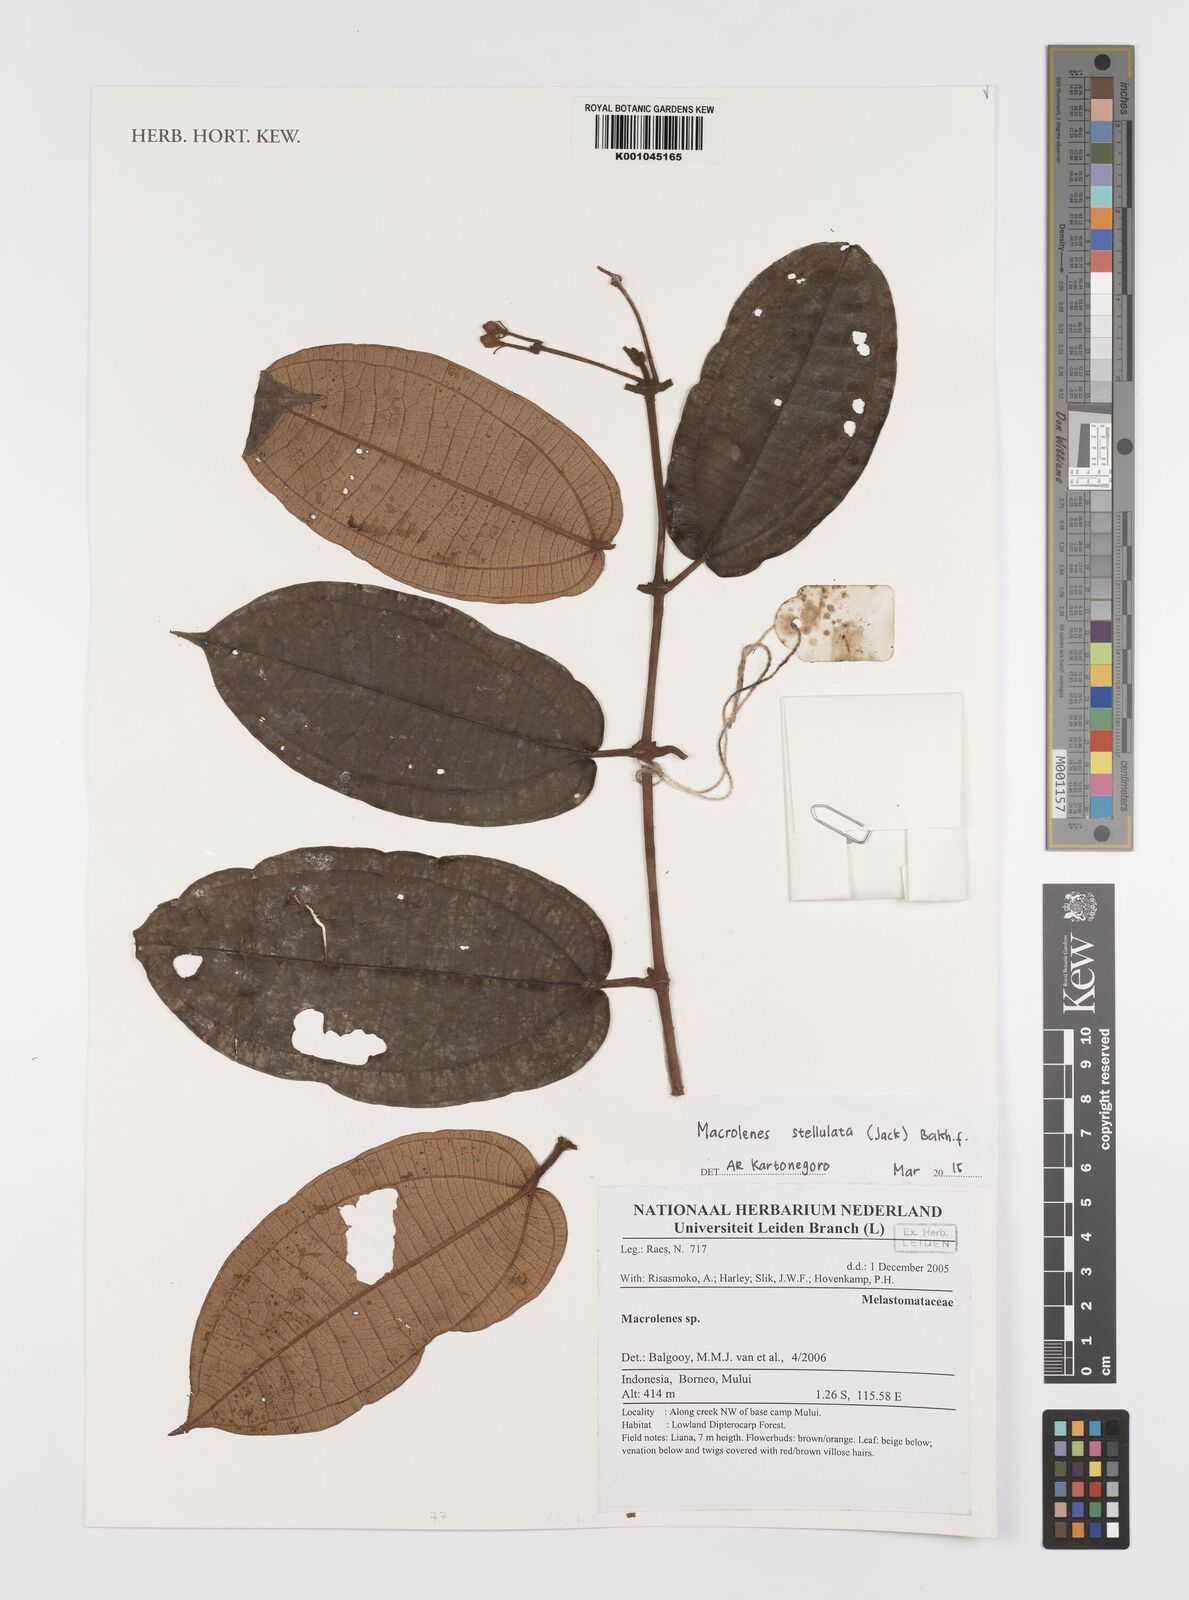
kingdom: Plantae
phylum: Tracheophyta
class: Magnoliopsida
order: Myrtales
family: Melastomataceae
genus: Macrolenes
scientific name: Macrolenes stellulata
